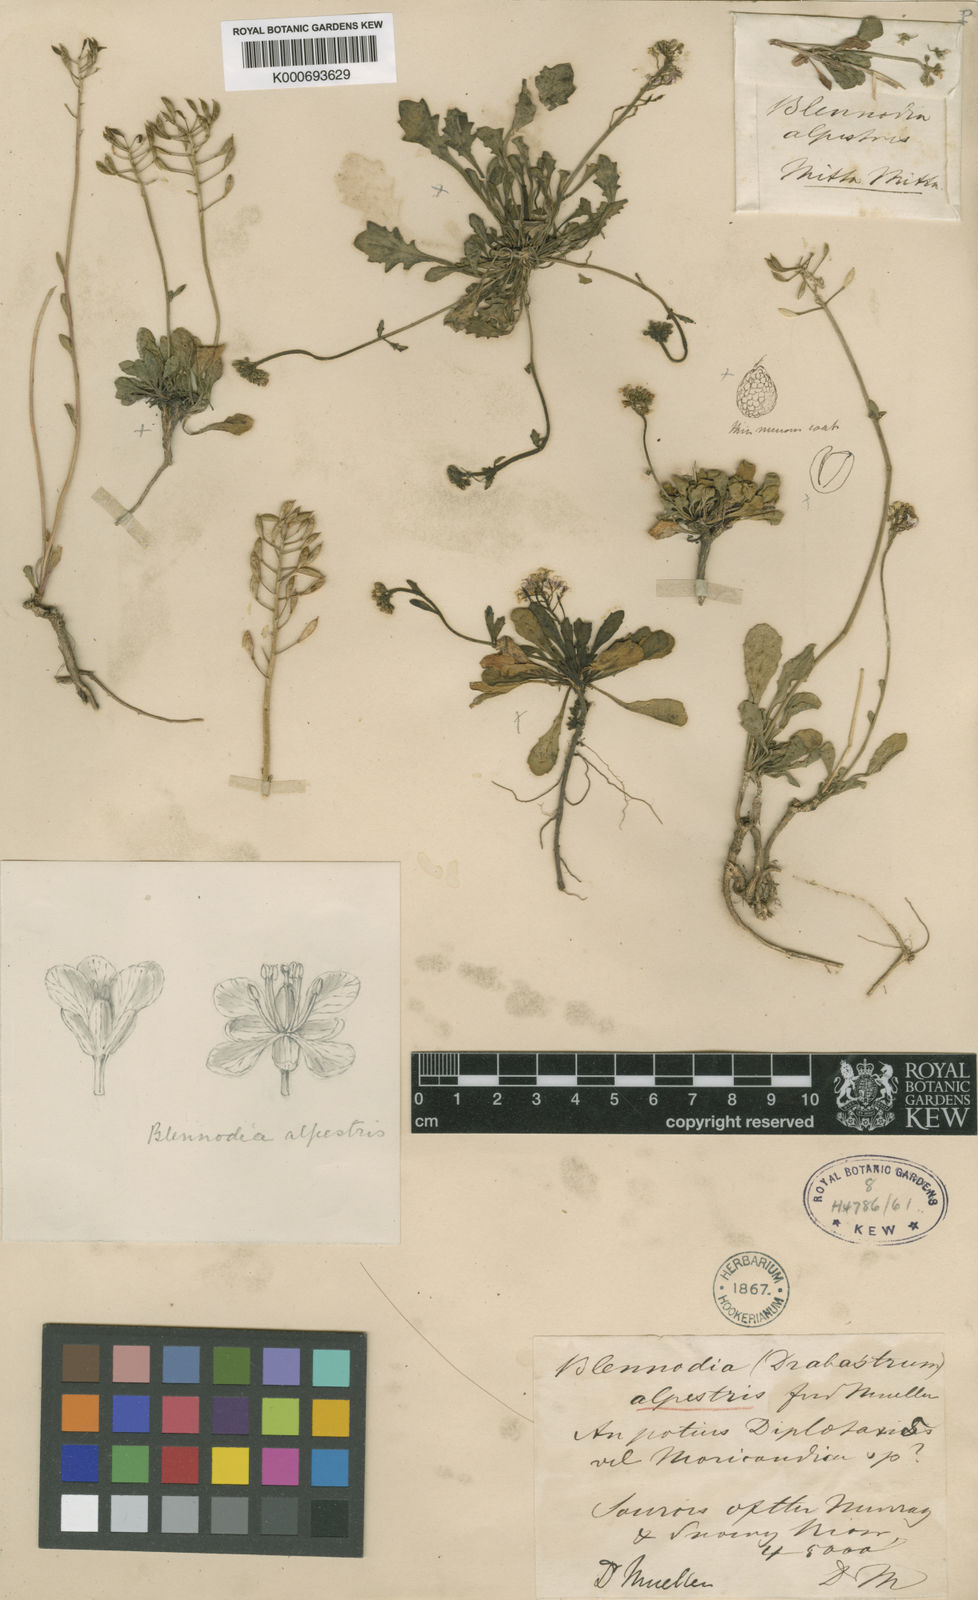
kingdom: Plantae
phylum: Tracheophyta
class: Magnoliopsida
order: Brassicales
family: Brassicaceae
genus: Drabastrum
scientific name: Drabastrum alpestre
